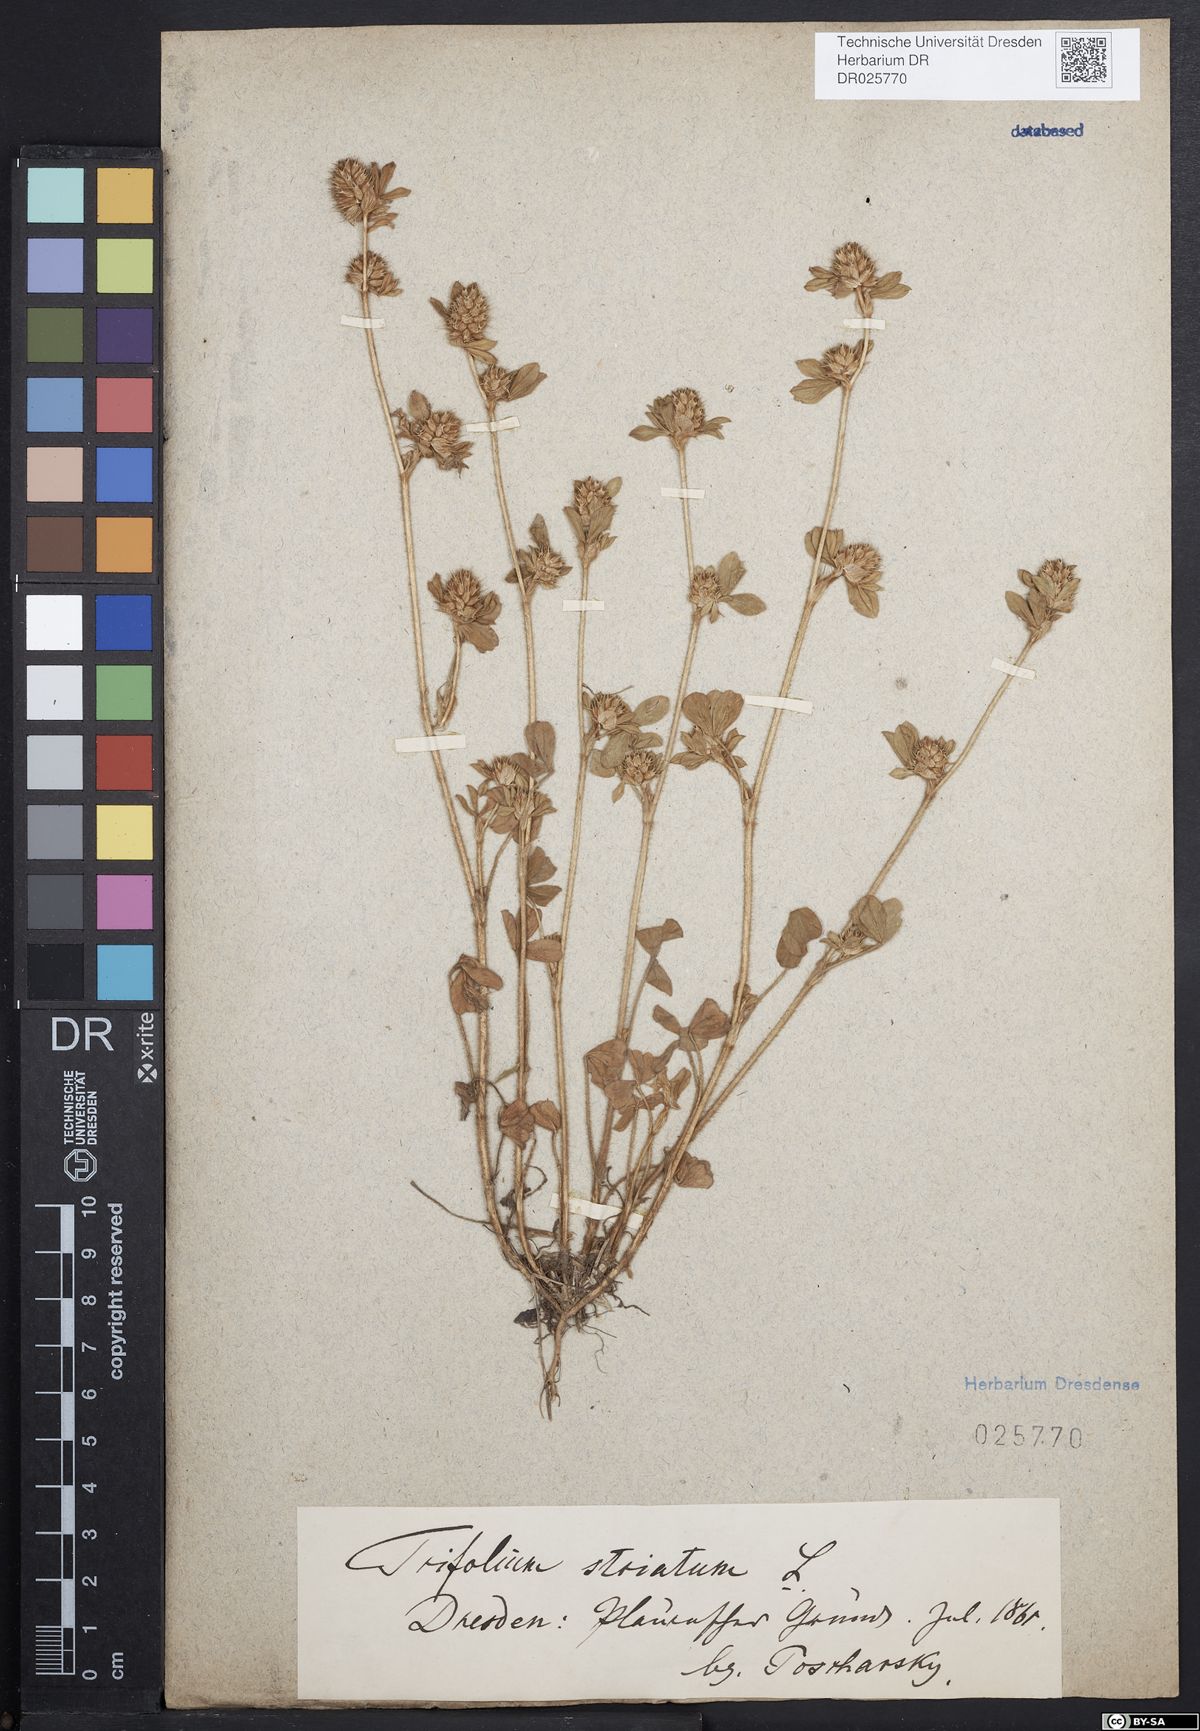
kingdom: Plantae
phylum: Tracheophyta
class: Magnoliopsida
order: Fabales
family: Fabaceae
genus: Trifolium
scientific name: Trifolium striatum
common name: Knotted clover
